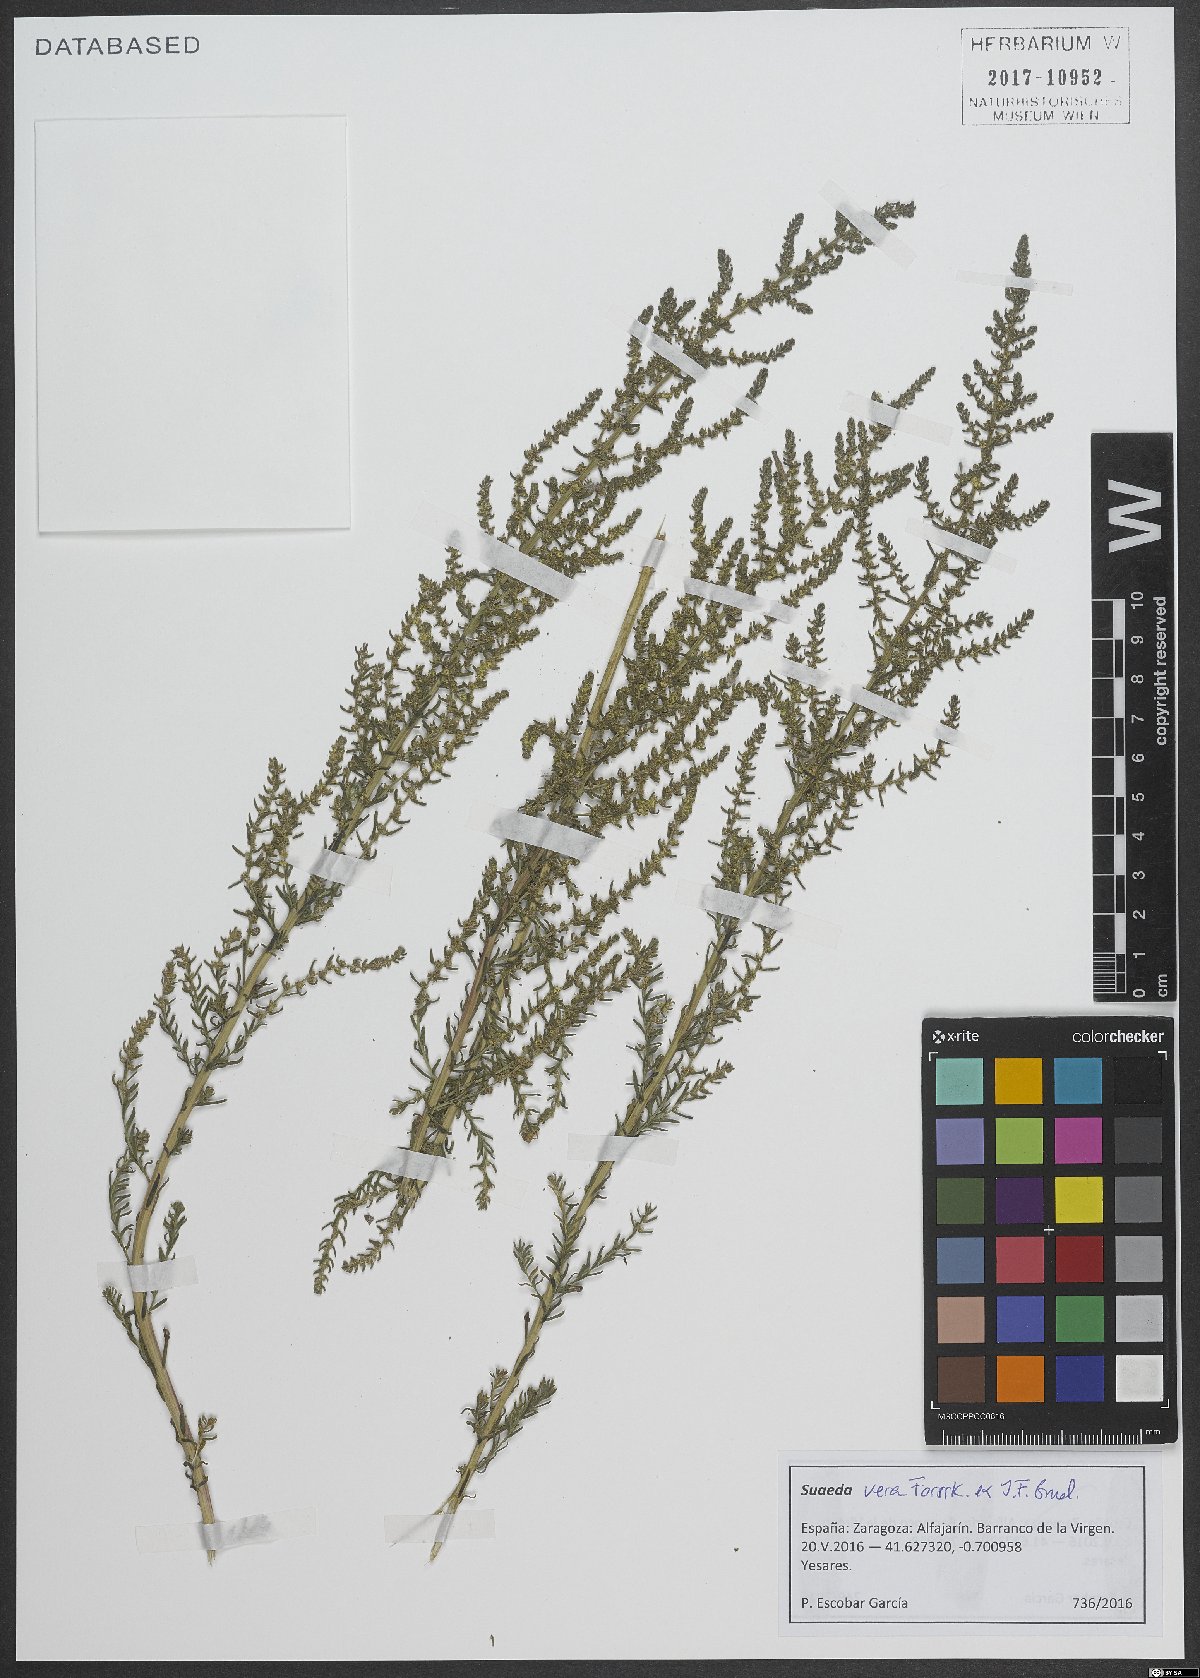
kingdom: Plantae
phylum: Tracheophyta
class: Magnoliopsida
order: Caryophyllales
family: Amaranthaceae
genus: Suaeda
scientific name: Suaeda vera
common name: Shrubby sea-blite
